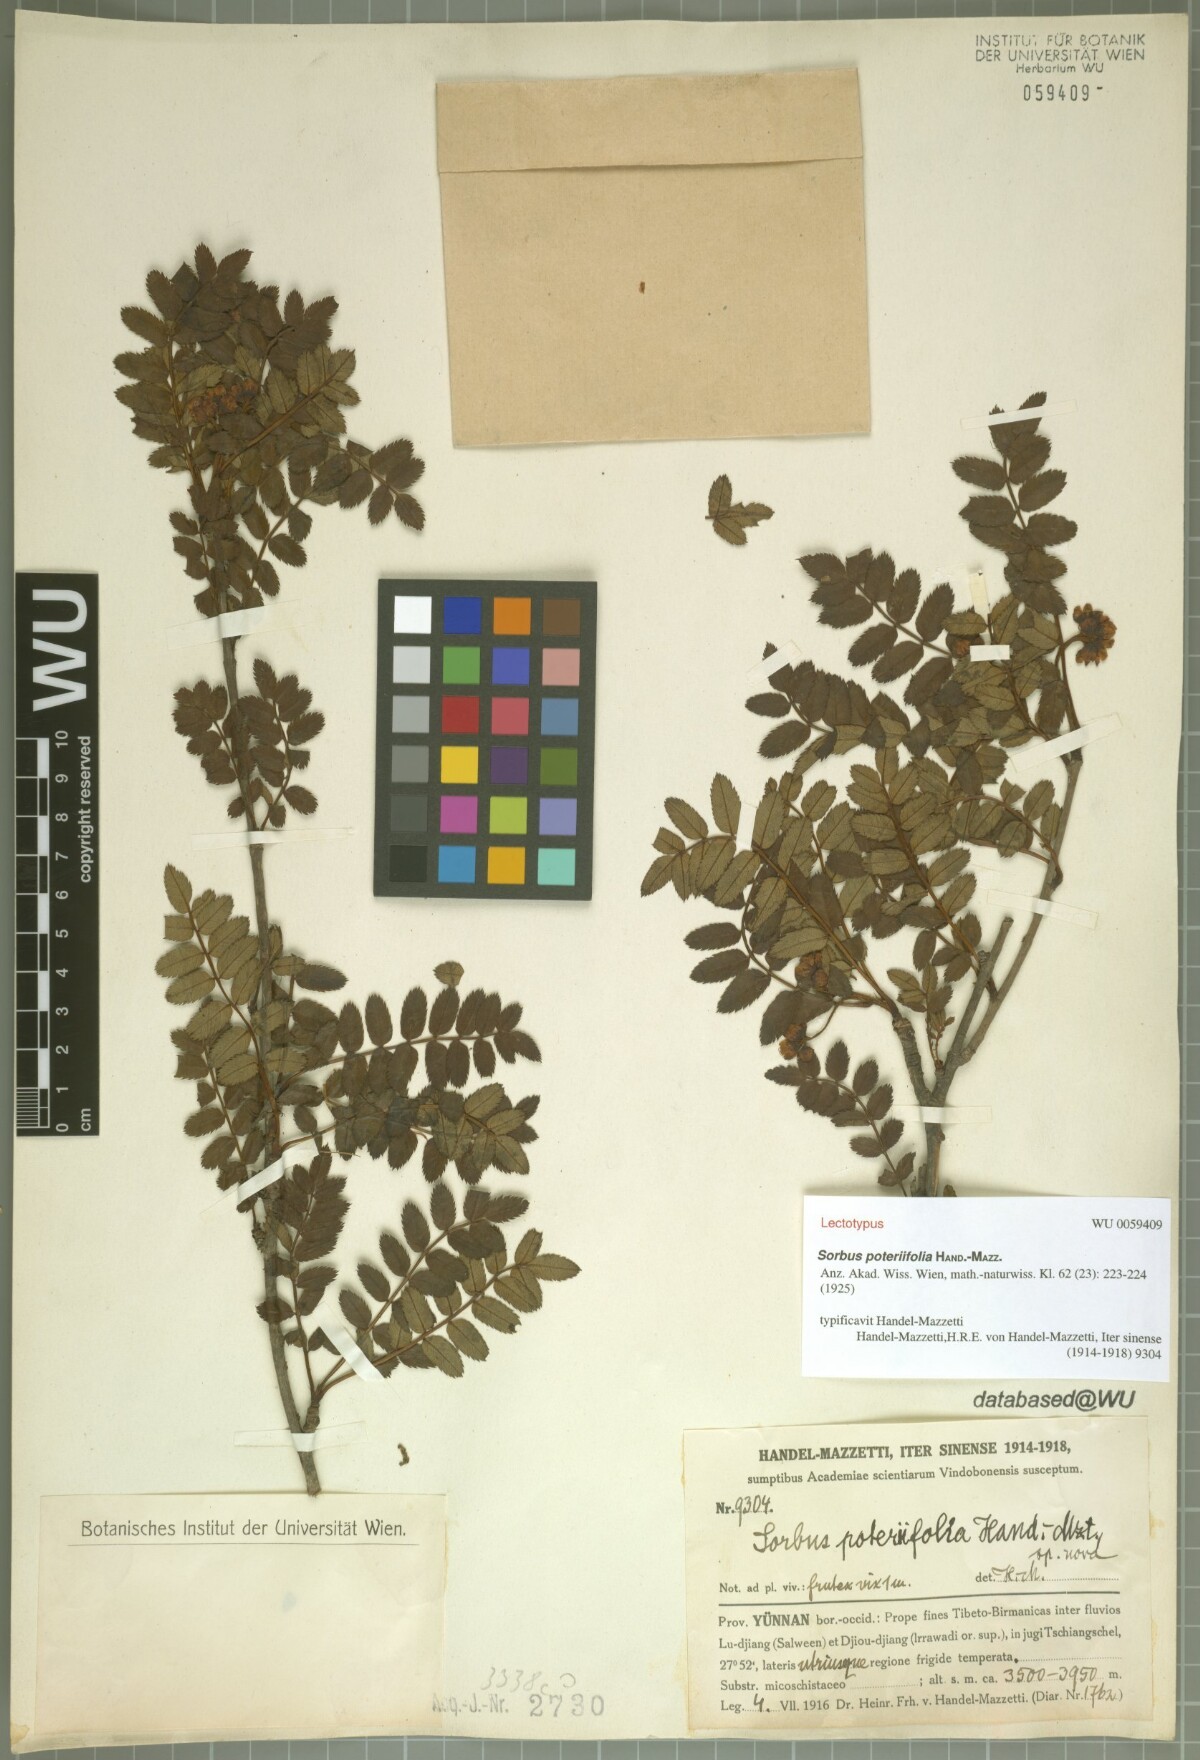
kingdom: Plantae
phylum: Tracheophyta
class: Magnoliopsida
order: Rosales
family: Rosaceae
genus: Sorbus
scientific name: Sorbus poteriifolia
